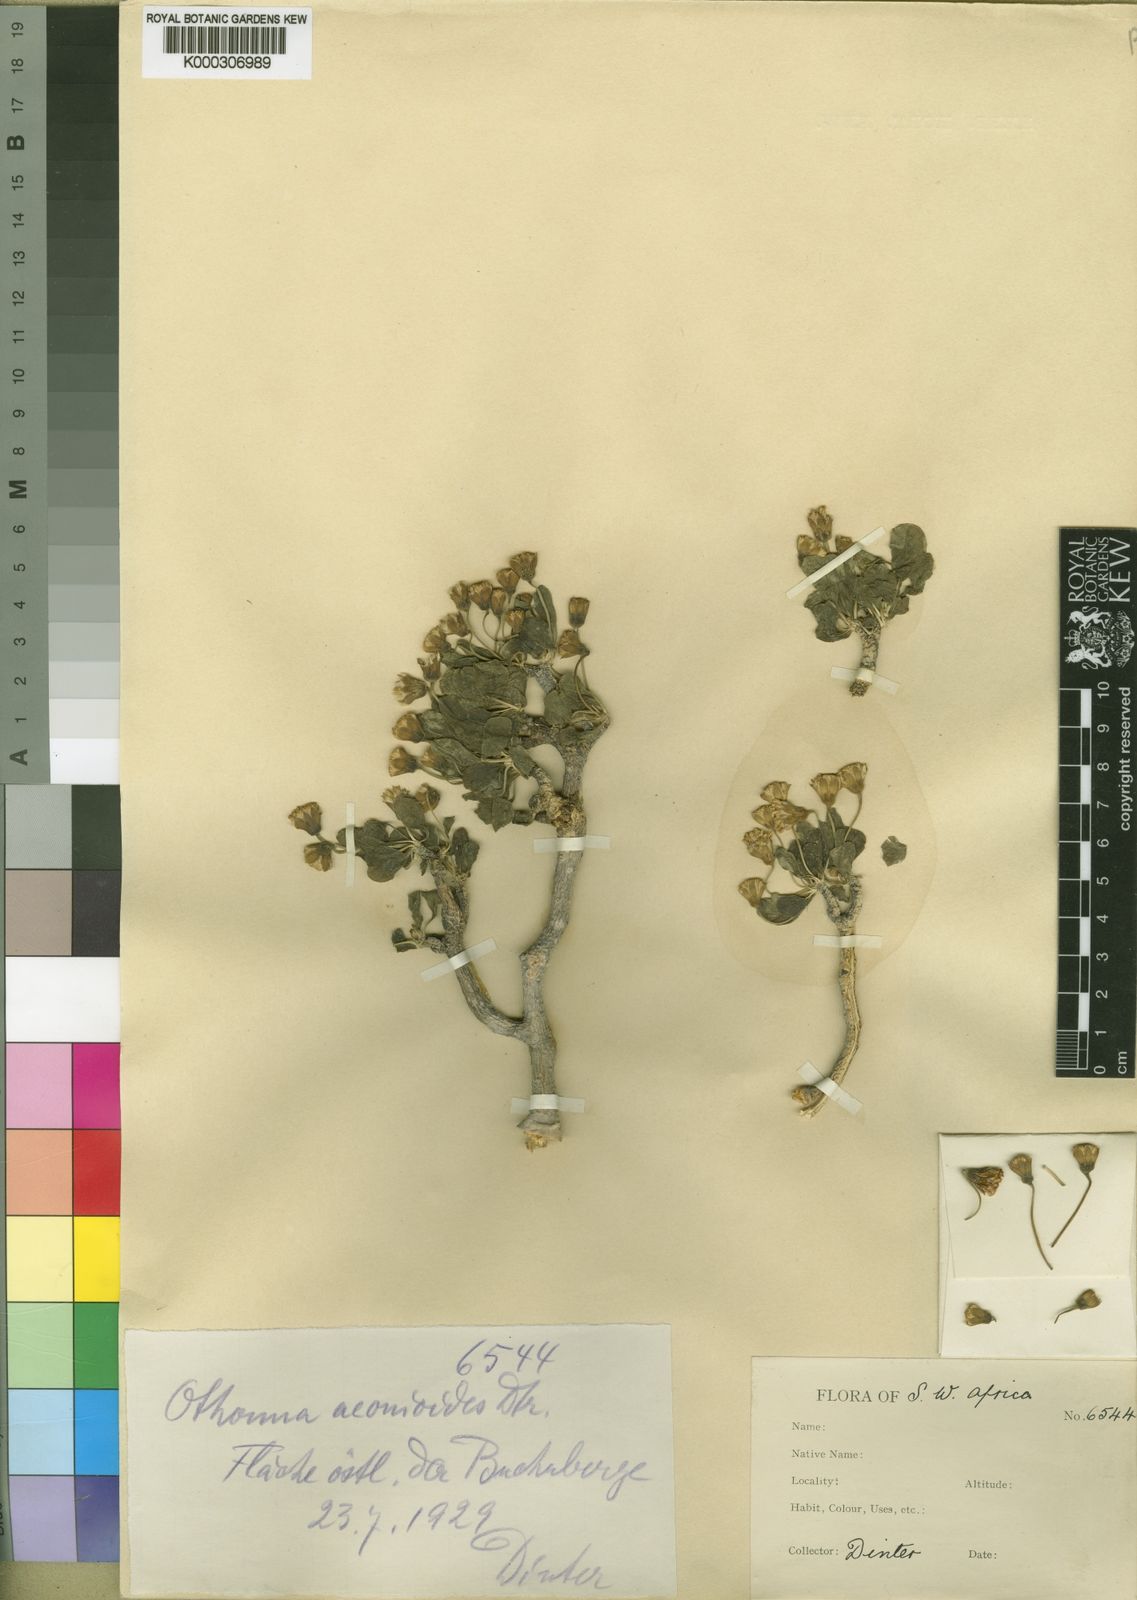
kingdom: Plantae
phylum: Tracheophyta
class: Magnoliopsida
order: Asterales
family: Asteraceae
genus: Othonna
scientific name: Othonna
